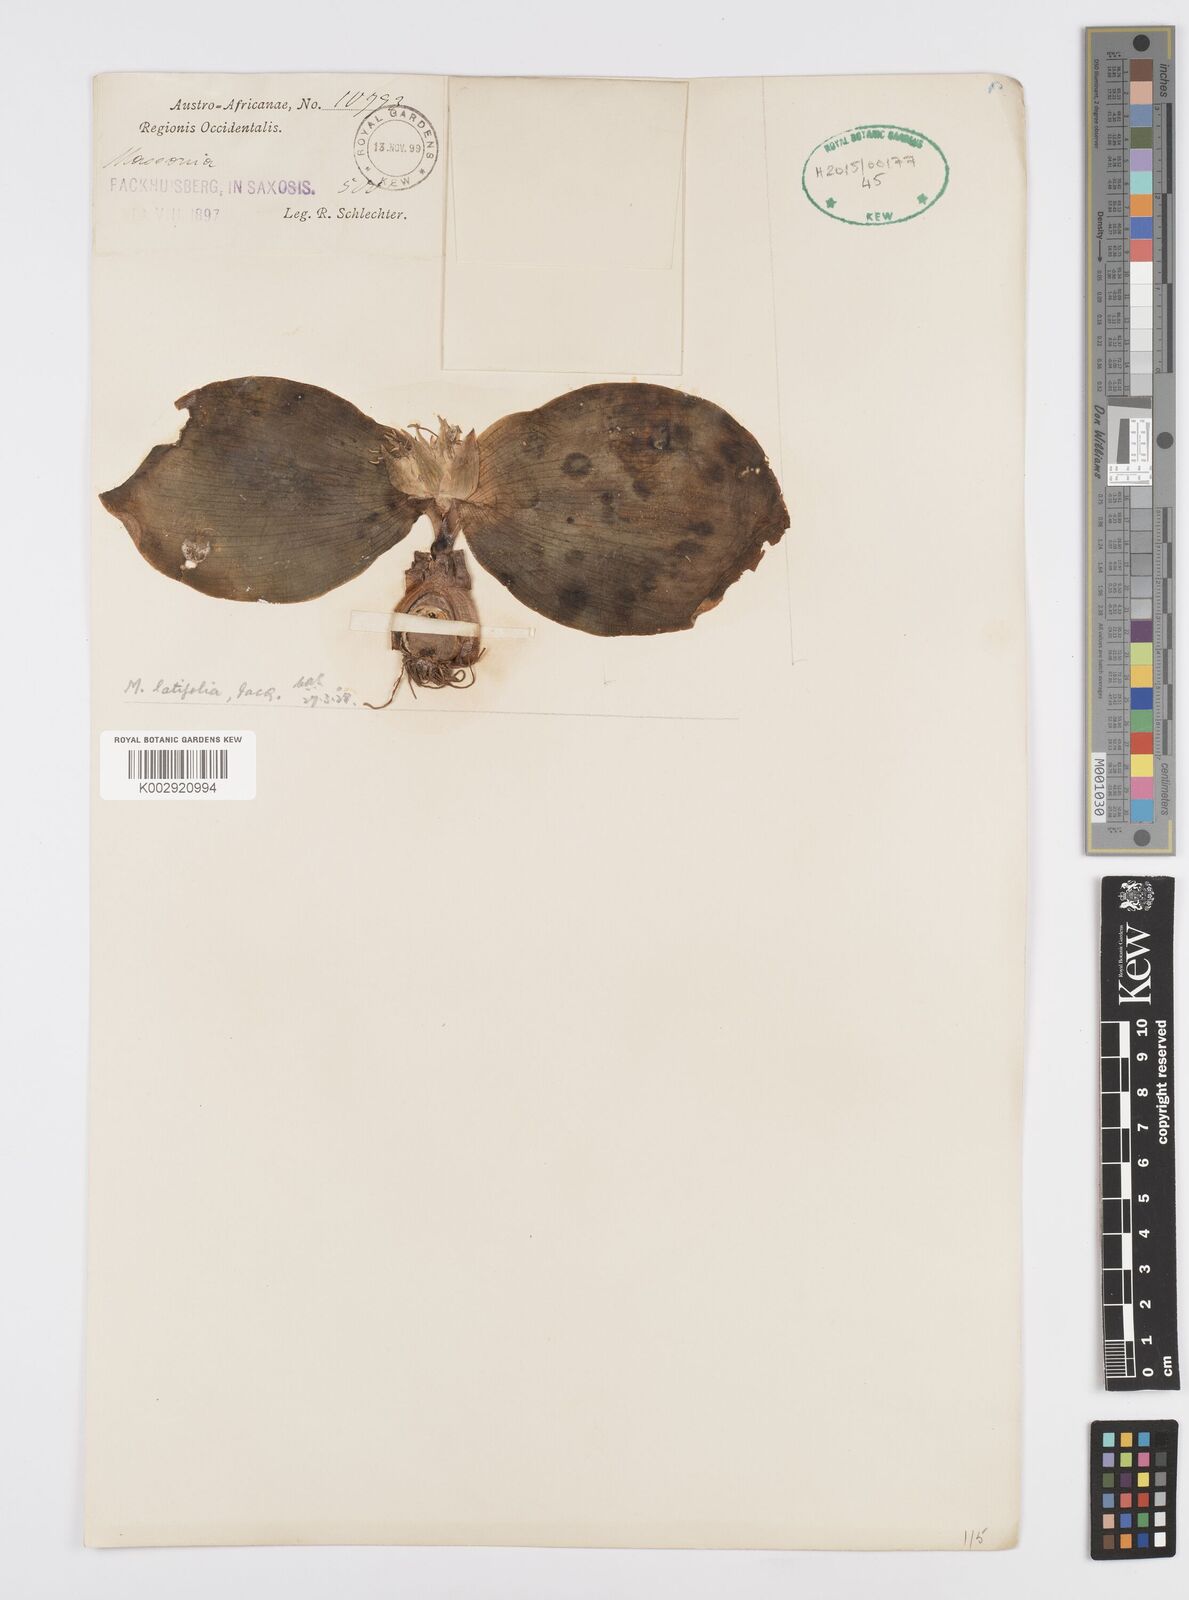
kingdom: Plantae
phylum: Tracheophyta
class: Liliopsida
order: Asparagales
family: Asparagaceae
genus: Massonia
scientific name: Massonia
